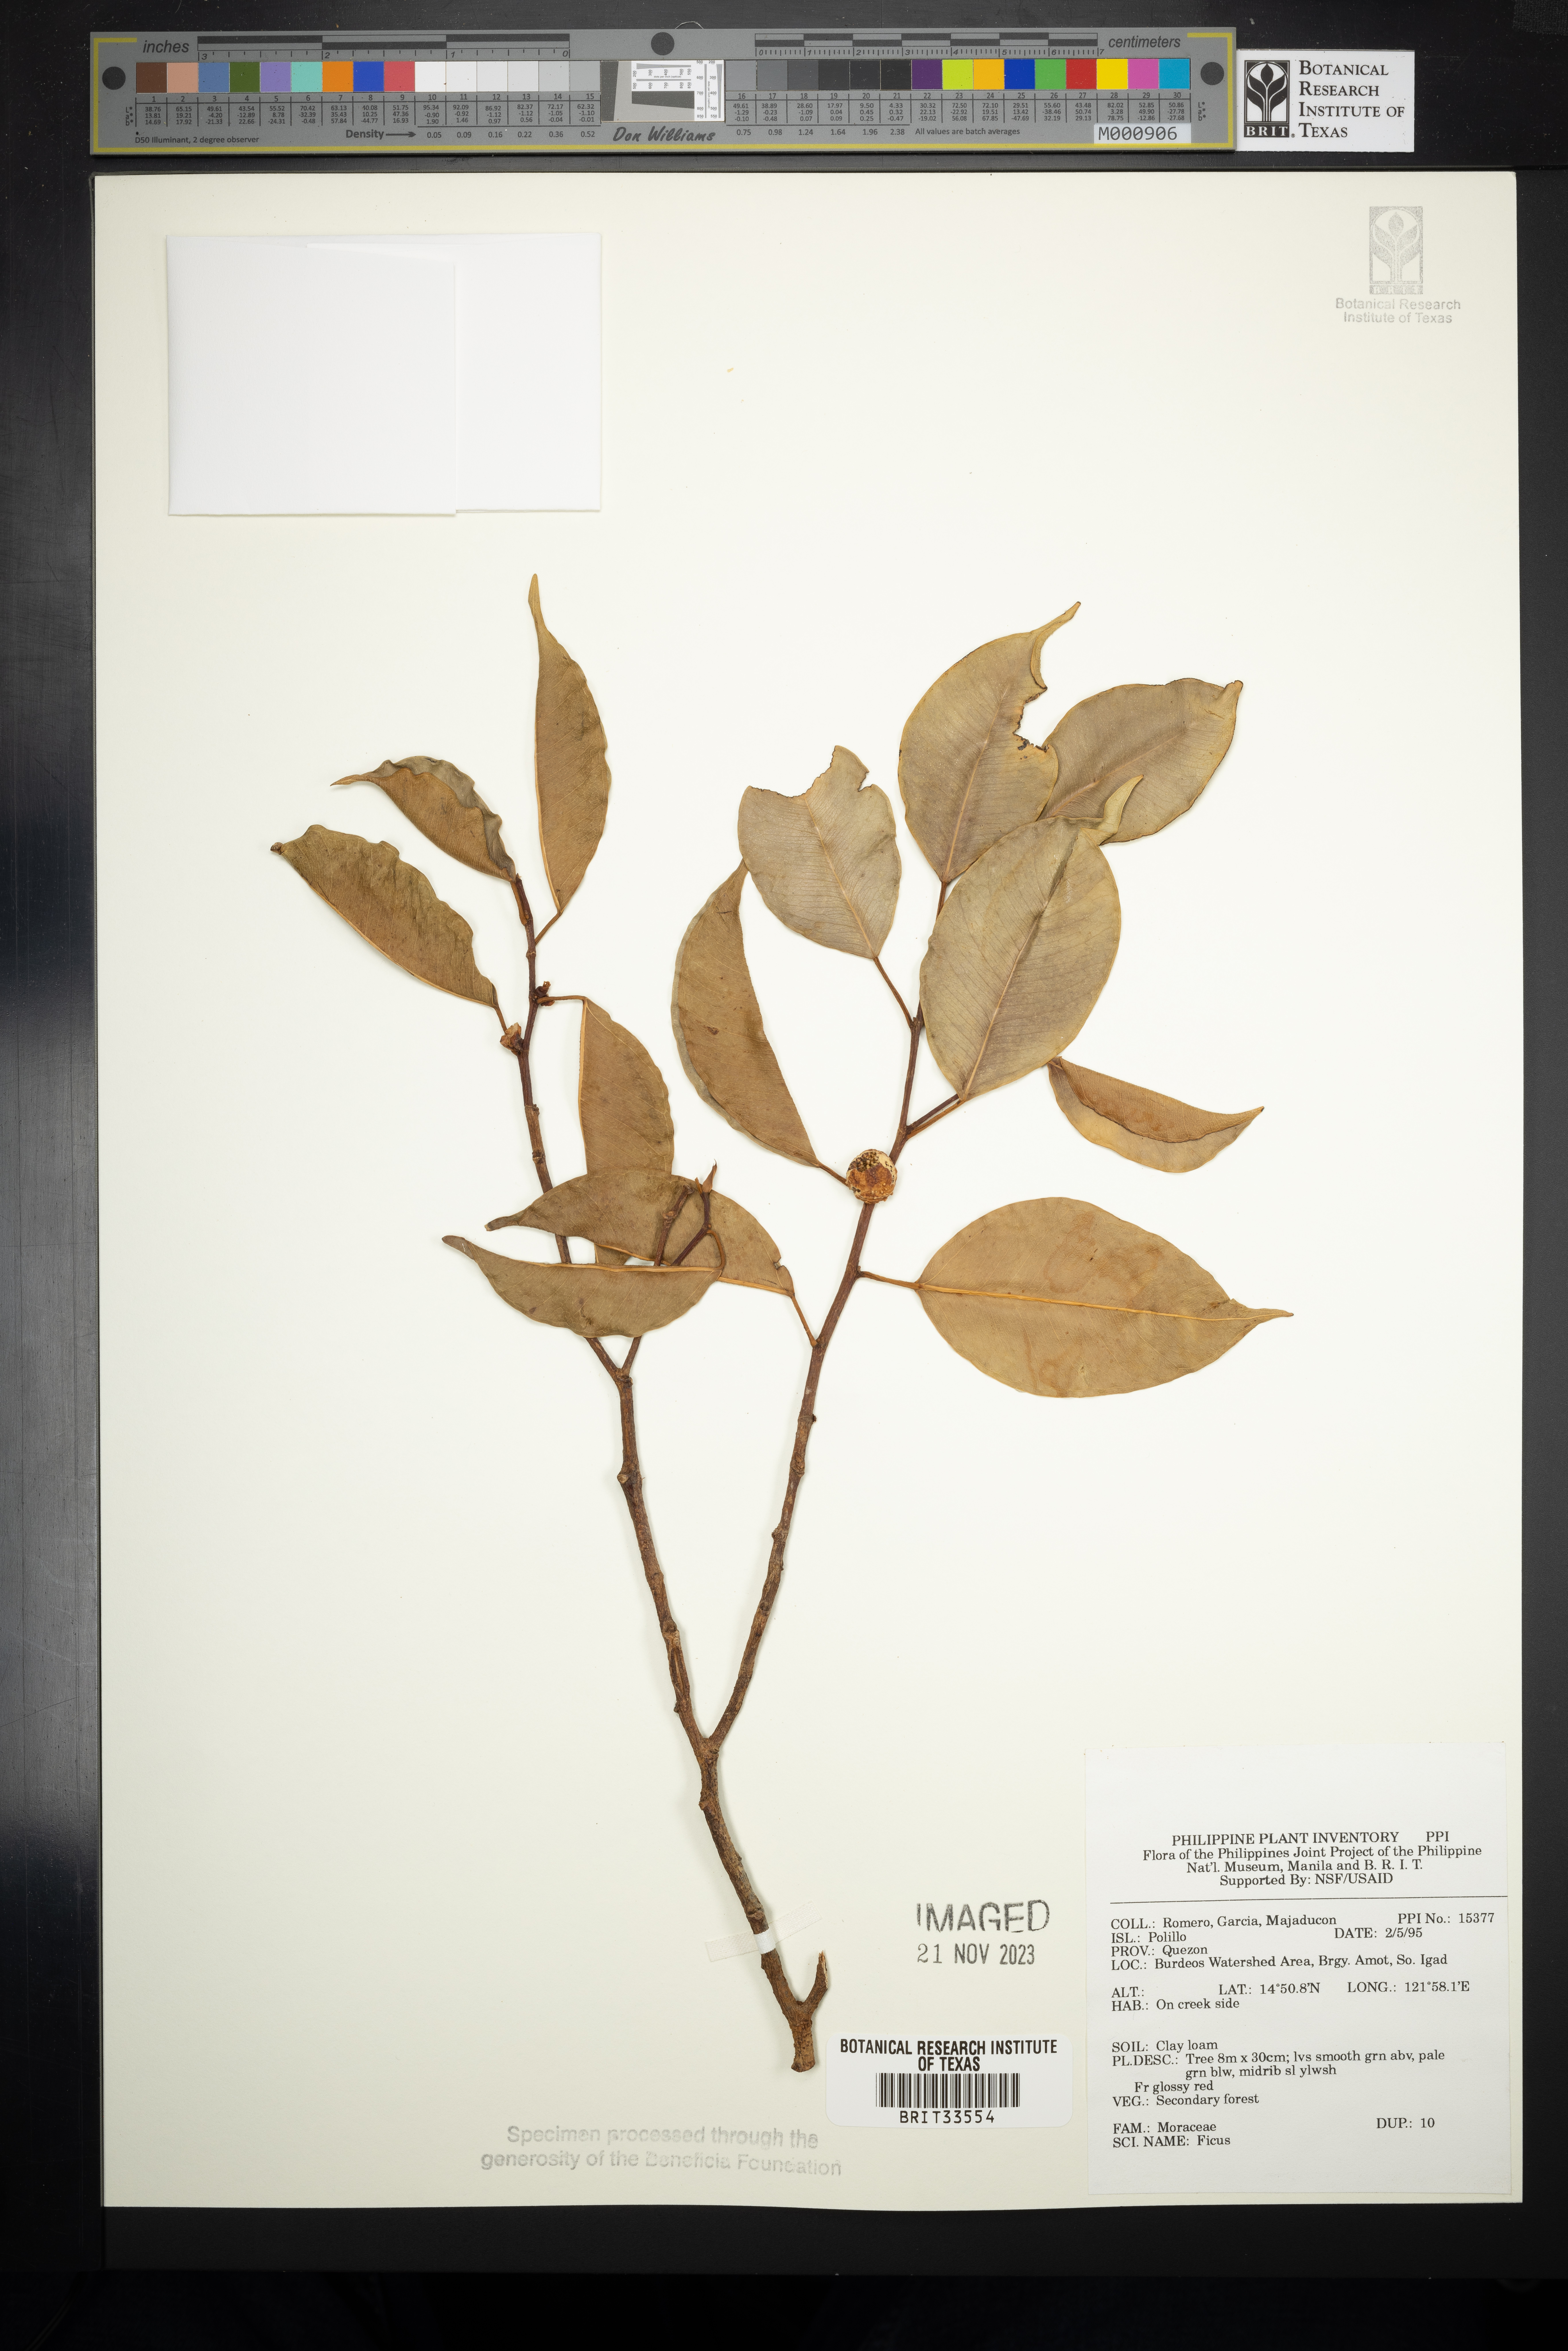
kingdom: Plantae
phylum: Tracheophyta
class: Magnoliopsida
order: Rosales
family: Moraceae
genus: Ficus
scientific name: Ficus
